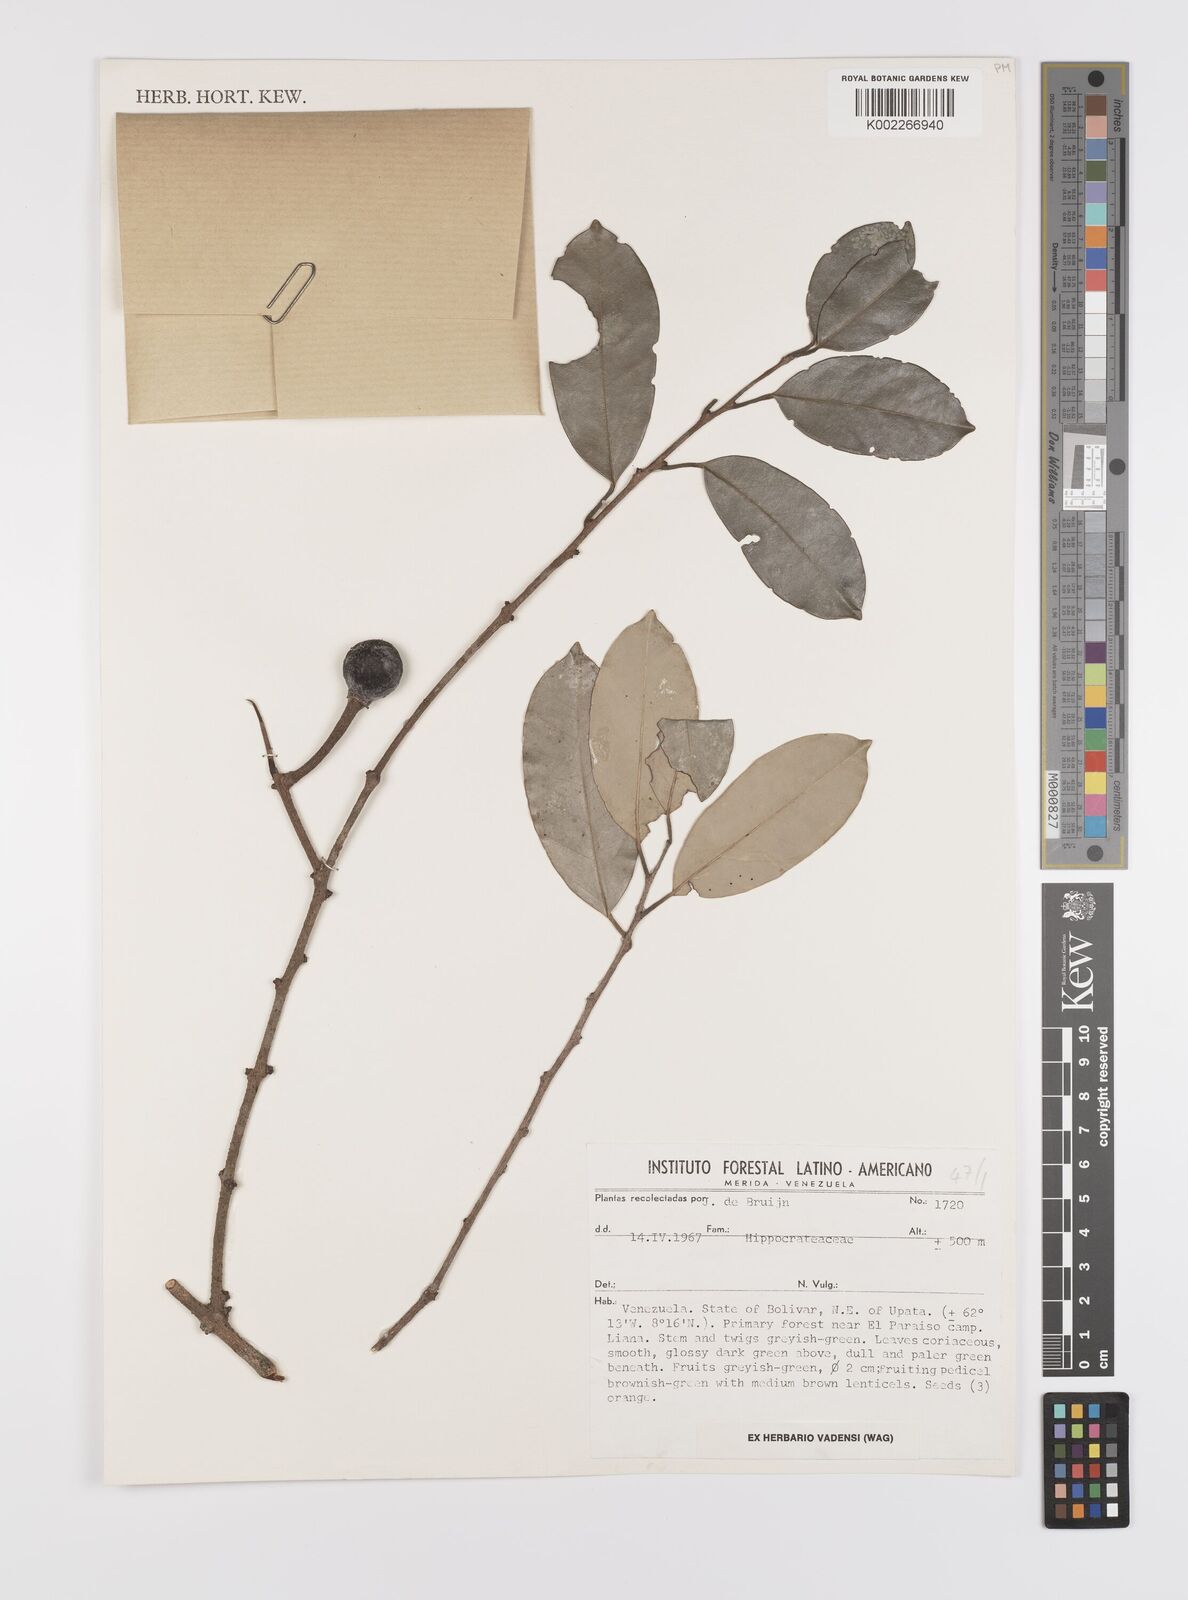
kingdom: Plantae
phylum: Tracheophyta
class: Magnoliopsida
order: Celastrales
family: Celastraceae
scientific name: Celastraceae
